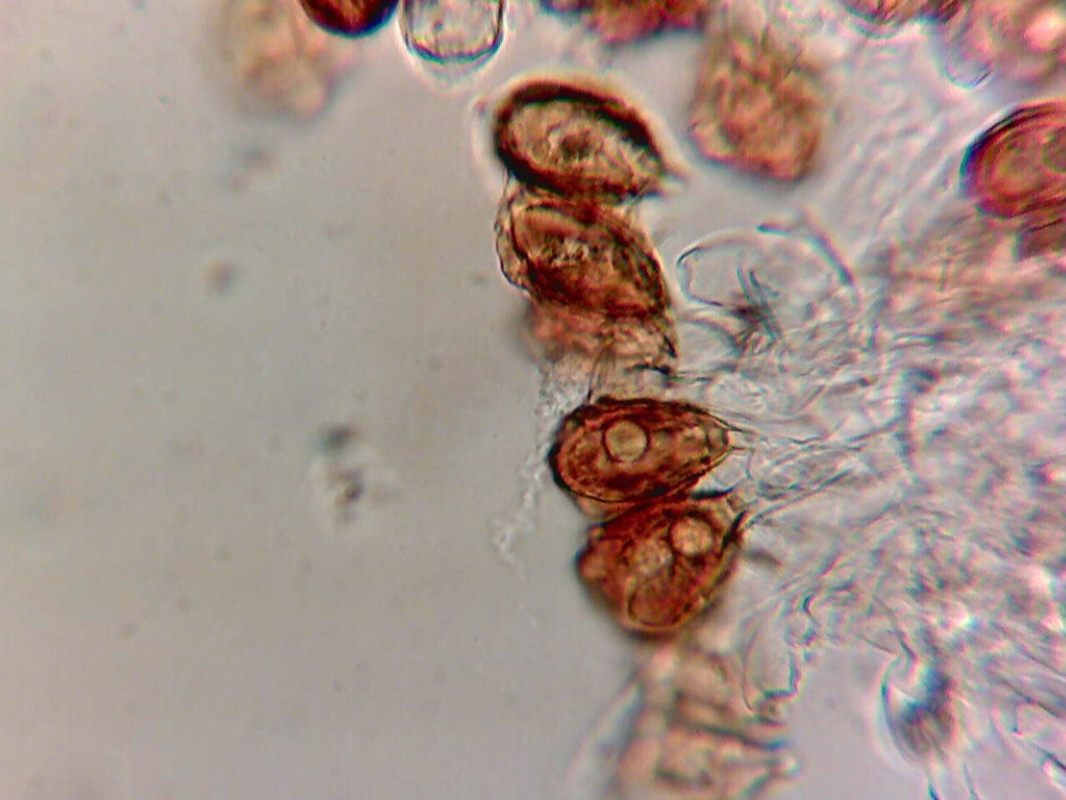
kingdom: Fungi
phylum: Basidiomycota
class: Agaricomycetes
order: Agaricales
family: Hymenogastraceae
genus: Hymenogaster
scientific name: Hymenogaster
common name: knoldtrøffel
